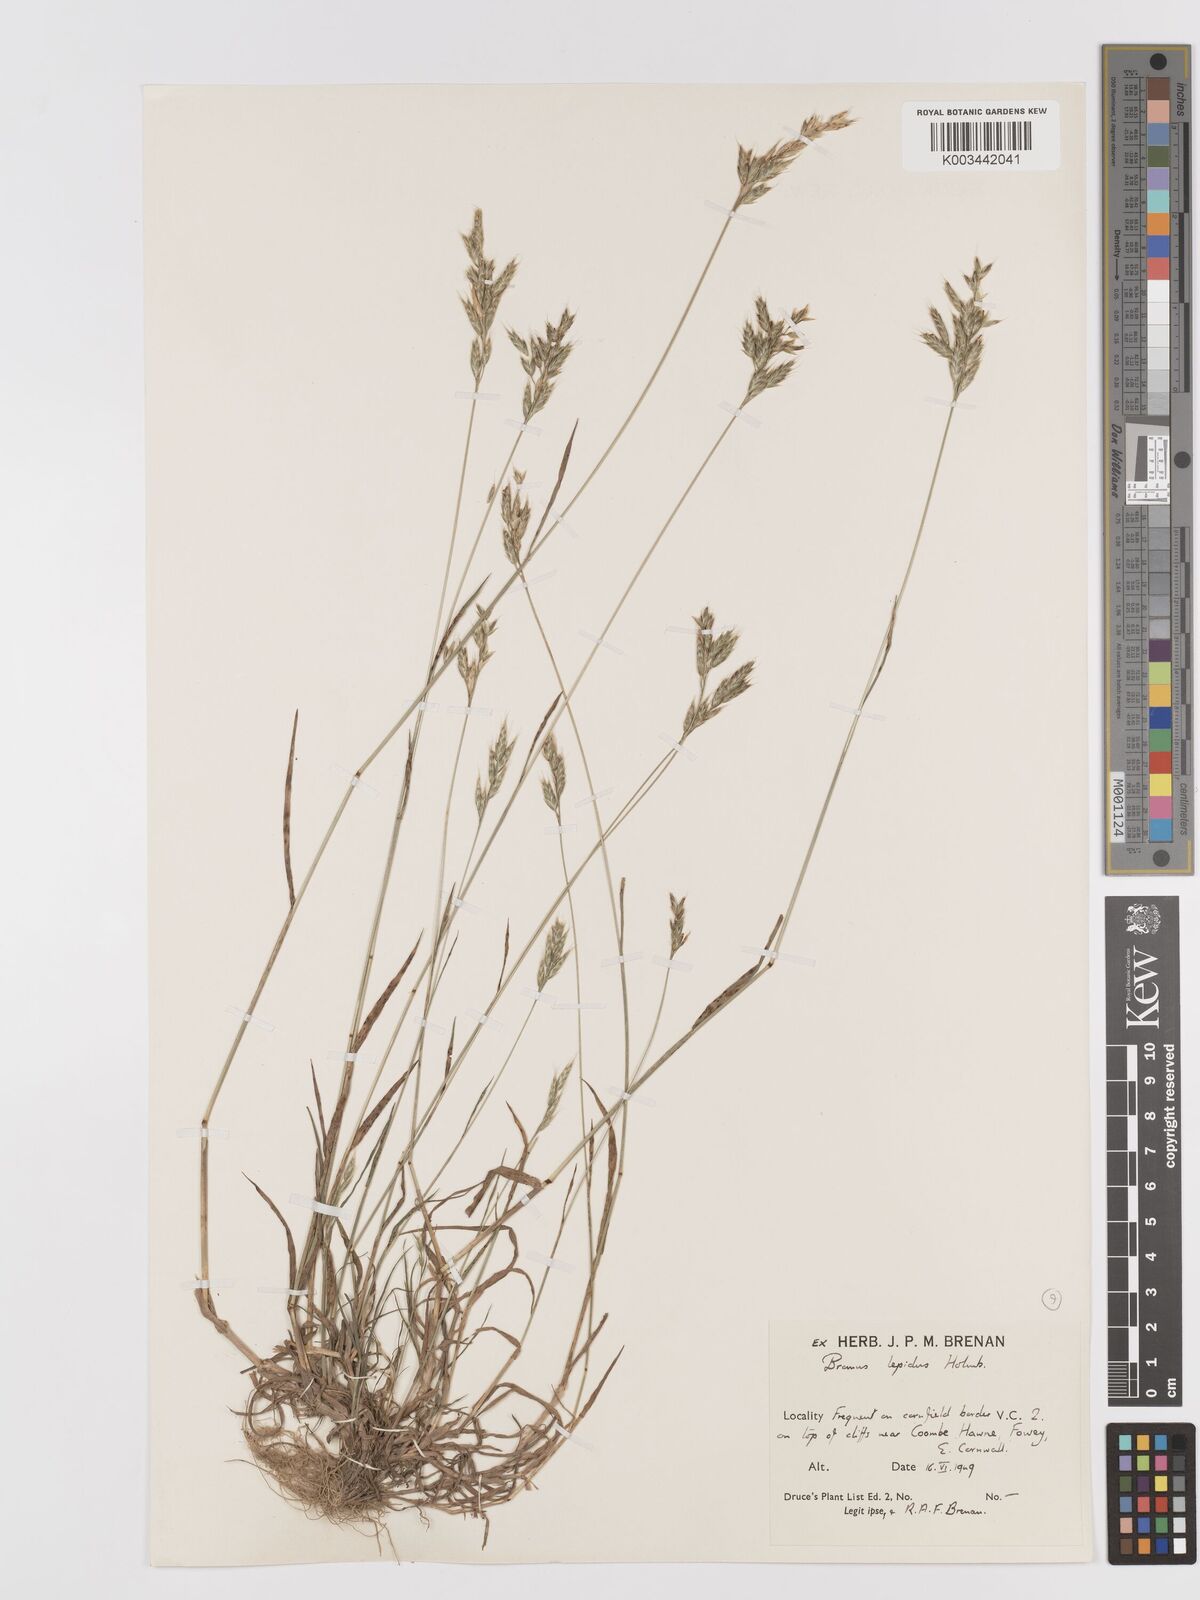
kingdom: Plantae
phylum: Tracheophyta
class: Liliopsida
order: Poales
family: Poaceae
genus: Bromus
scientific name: Bromus lepidus
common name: Slender soft-brome
